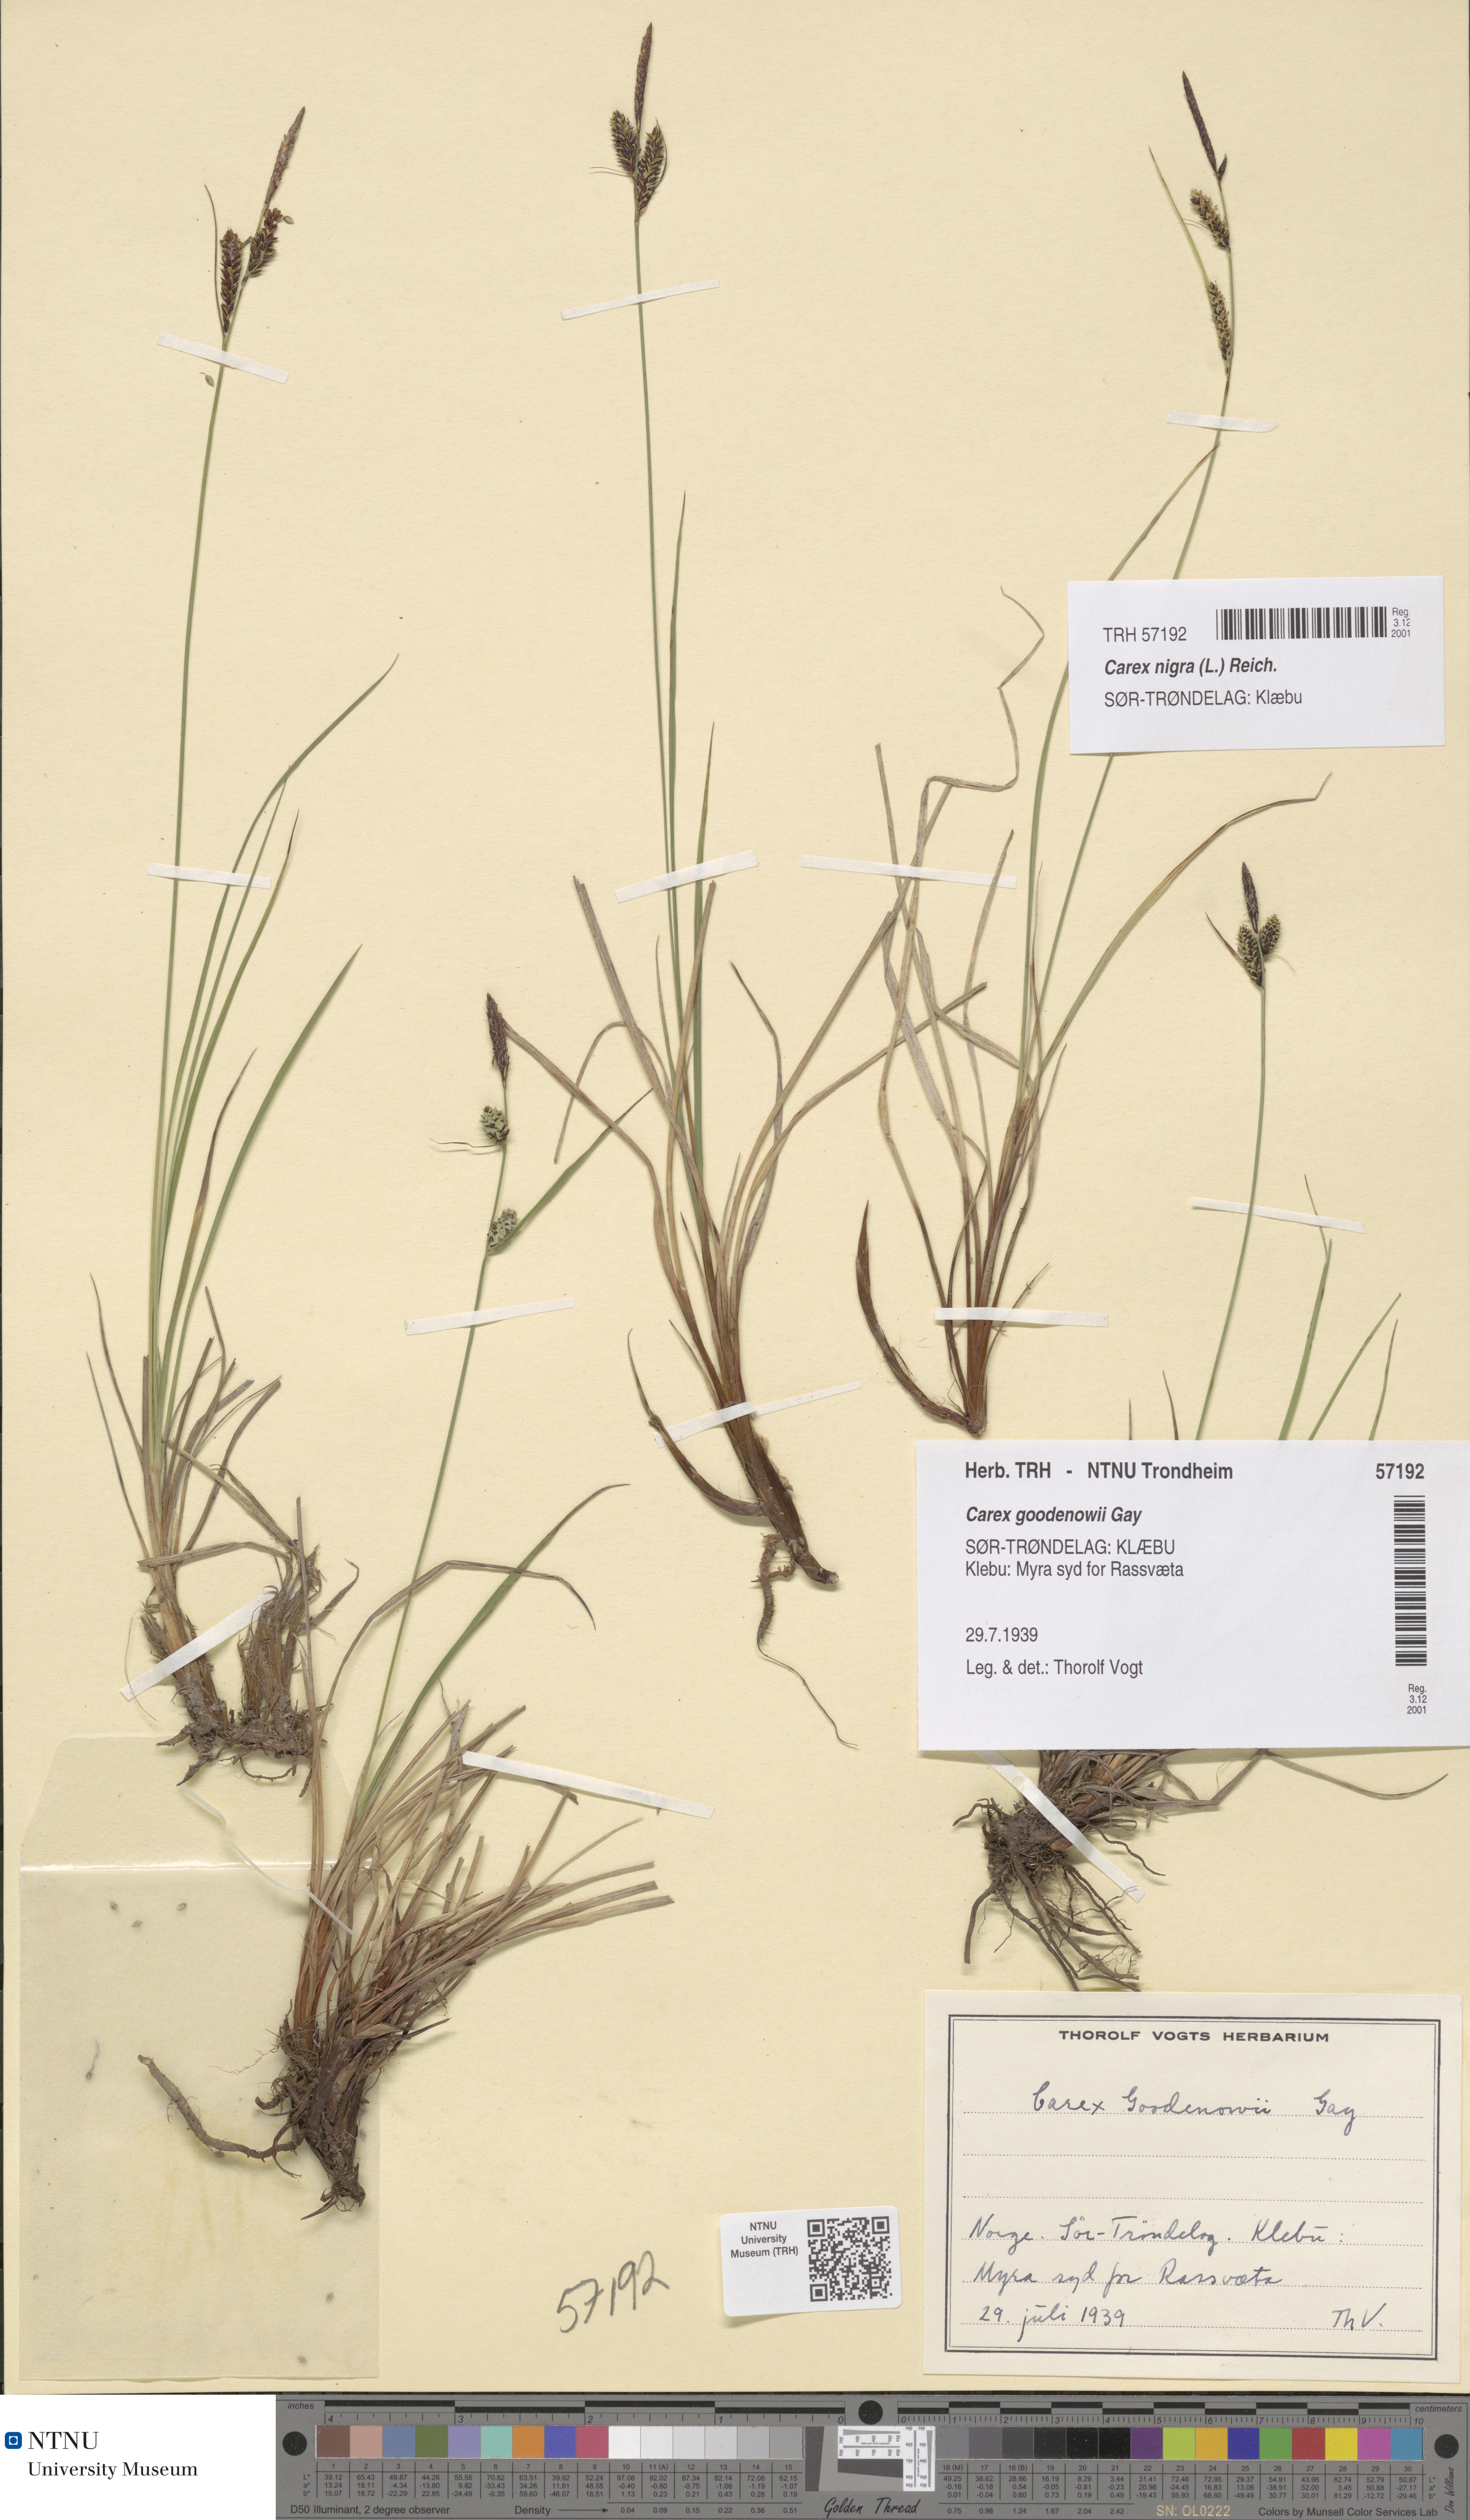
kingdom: Plantae
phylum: Tracheophyta
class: Liliopsida
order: Poales
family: Cyperaceae
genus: Carex
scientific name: Carex nigra
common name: Common sedge
